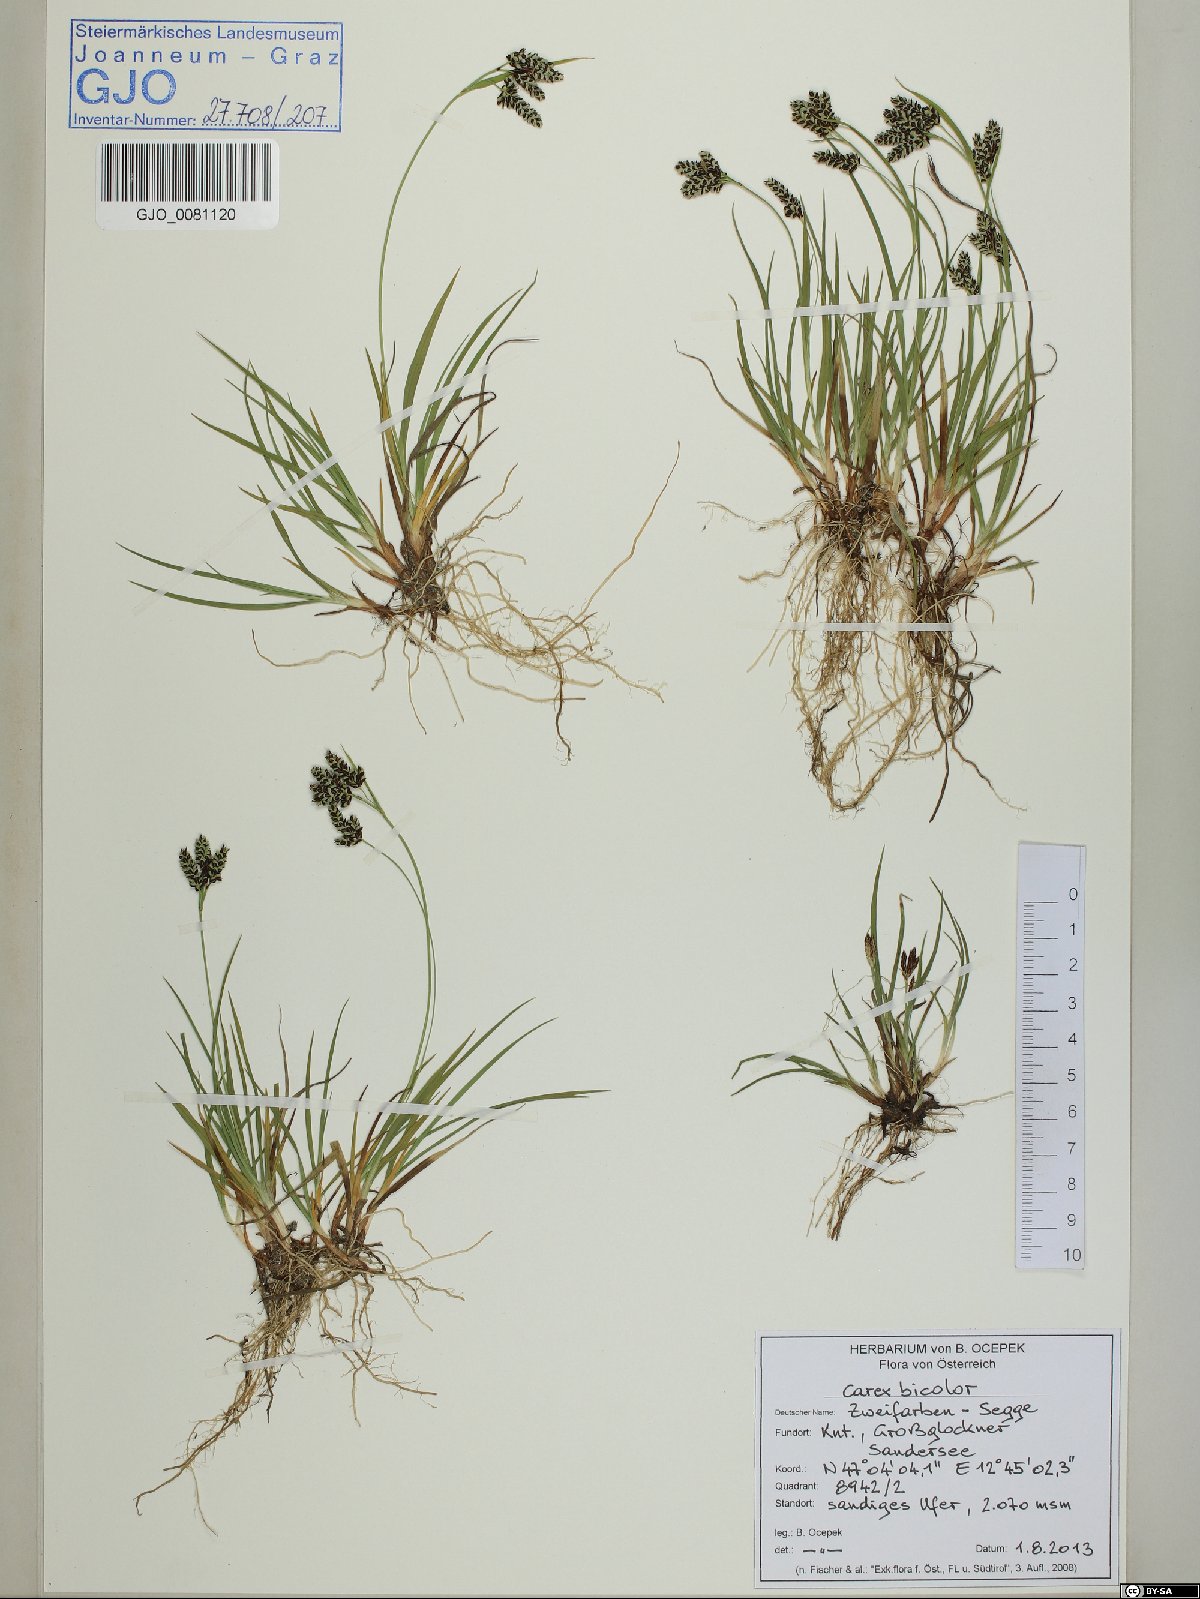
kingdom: Plantae
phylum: Tracheophyta
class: Liliopsida
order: Poales
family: Cyperaceae
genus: Carex
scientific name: Carex bicolor
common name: Bicoloured sedge
